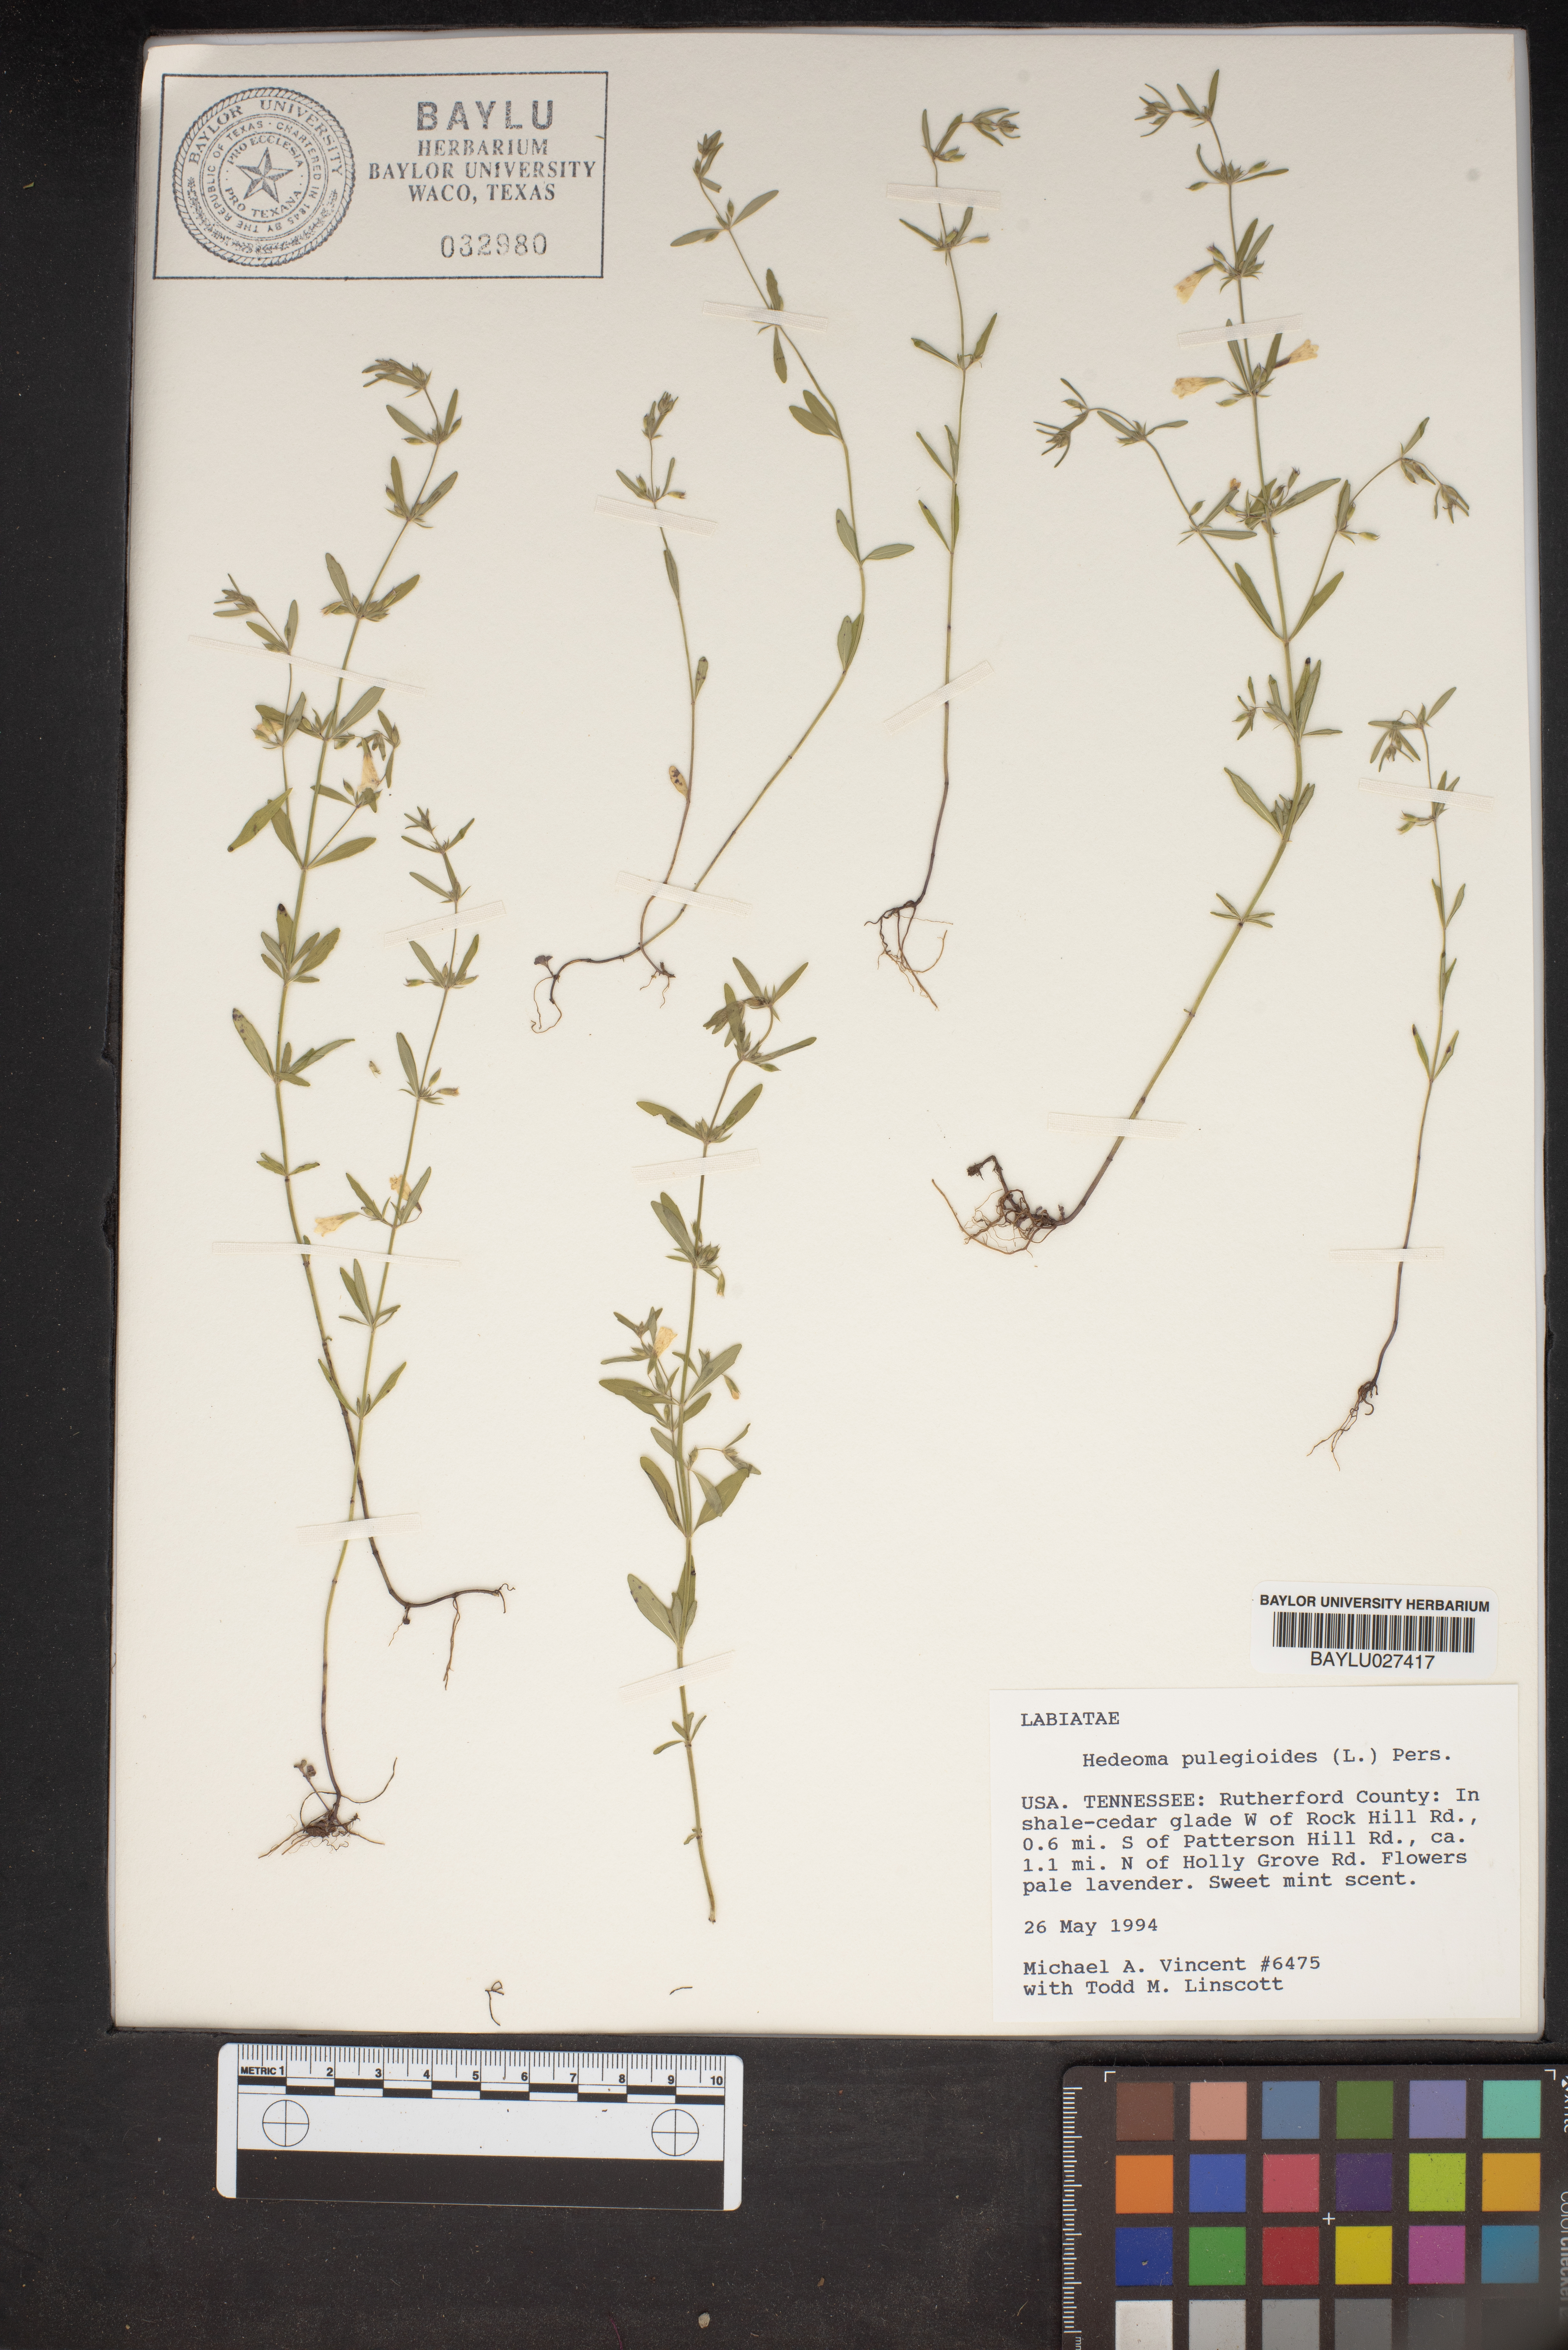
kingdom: Plantae
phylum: Tracheophyta
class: Magnoliopsida
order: Lamiales
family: Lamiaceae
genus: Hedeoma
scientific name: Hedeoma pulegioides
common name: American false pennyroyal
